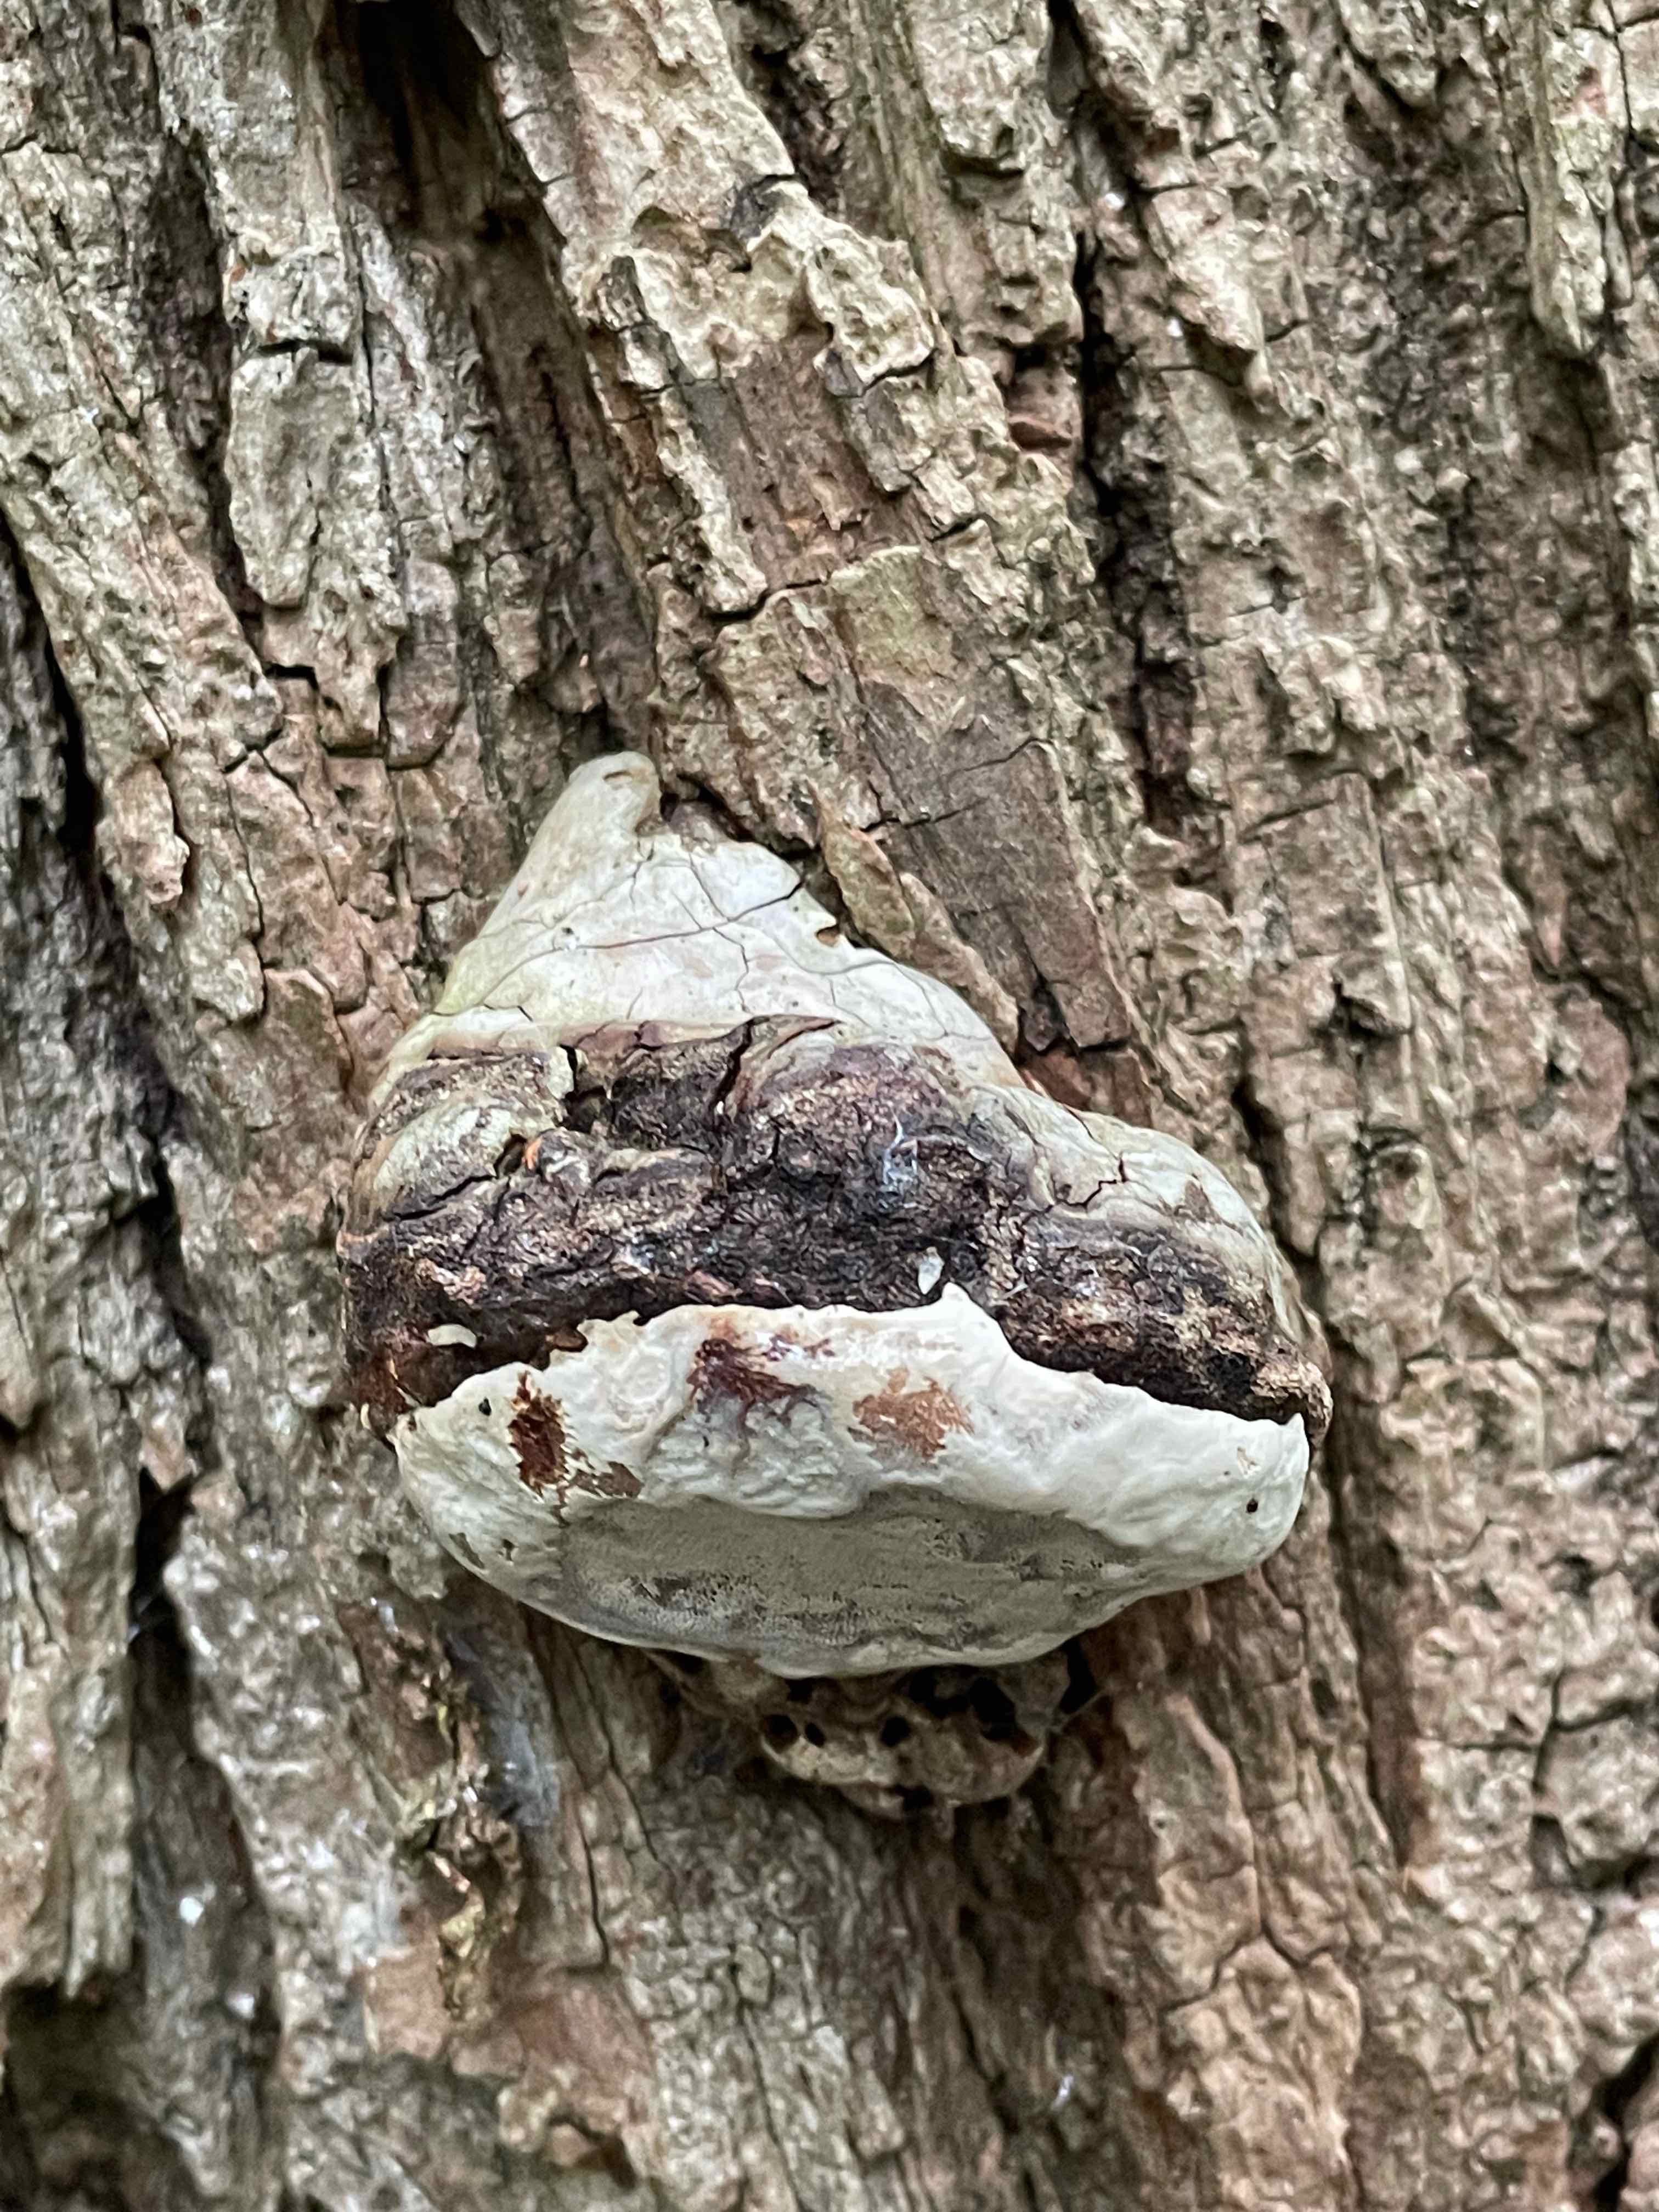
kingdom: Fungi
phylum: Basidiomycota
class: Agaricomycetes
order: Polyporales
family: Polyporaceae
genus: Ganoderma
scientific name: Ganoderma applanatum
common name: flad lakporesvamp
